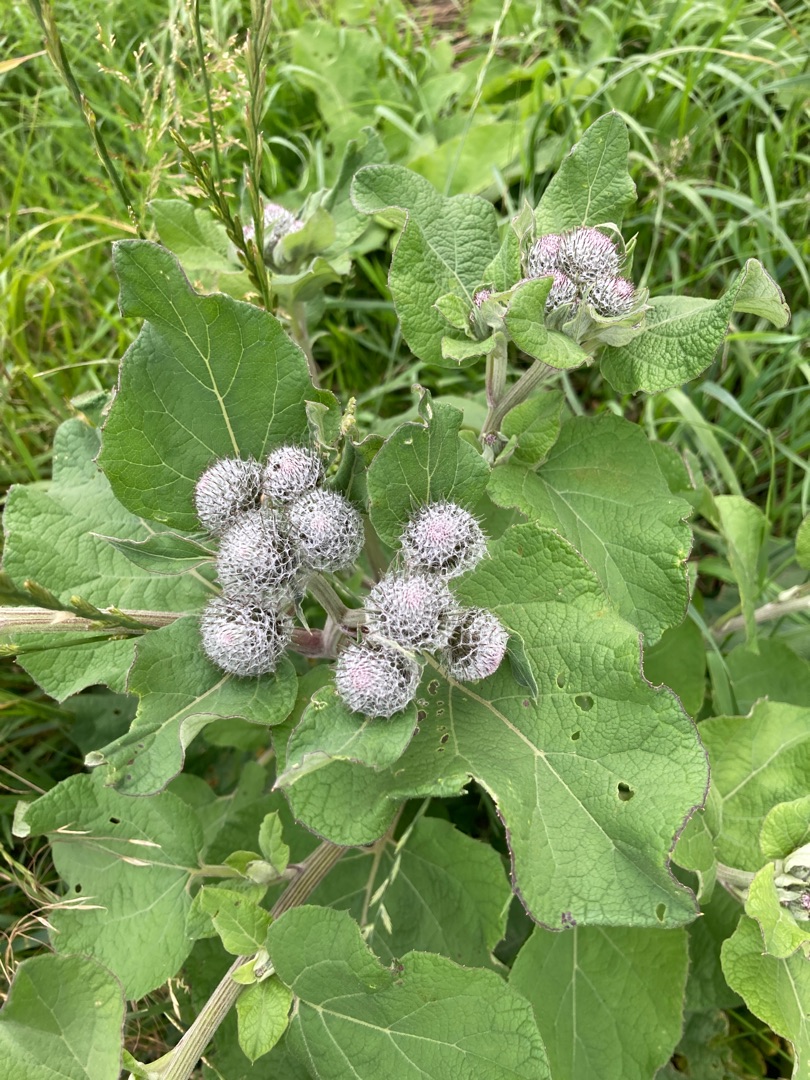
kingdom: Plantae
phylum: Tracheophyta
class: Magnoliopsida
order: Asterales
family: Asteraceae
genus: Arctium
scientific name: Arctium tomentosum
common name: Filtet burre
